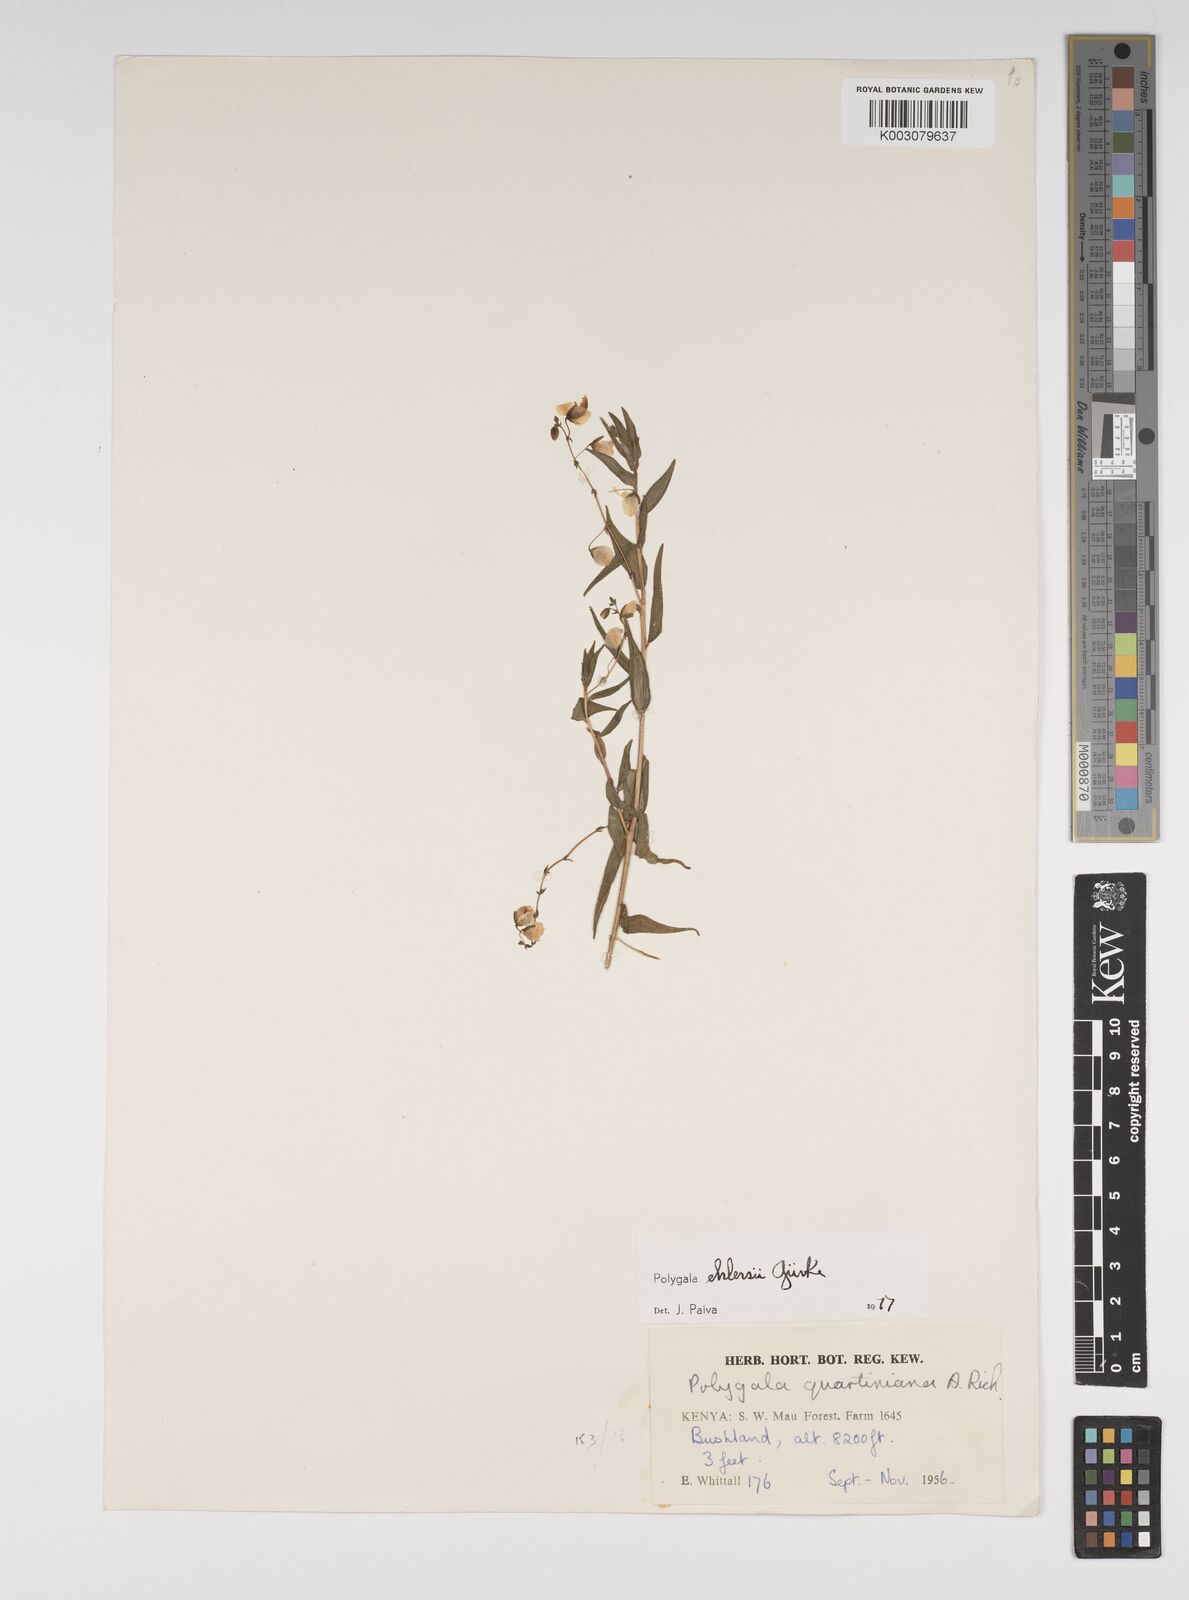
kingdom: Plantae
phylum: Tracheophyta
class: Magnoliopsida
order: Fabales
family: Polygalaceae
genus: Polygala
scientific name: Polygala ehlersii
